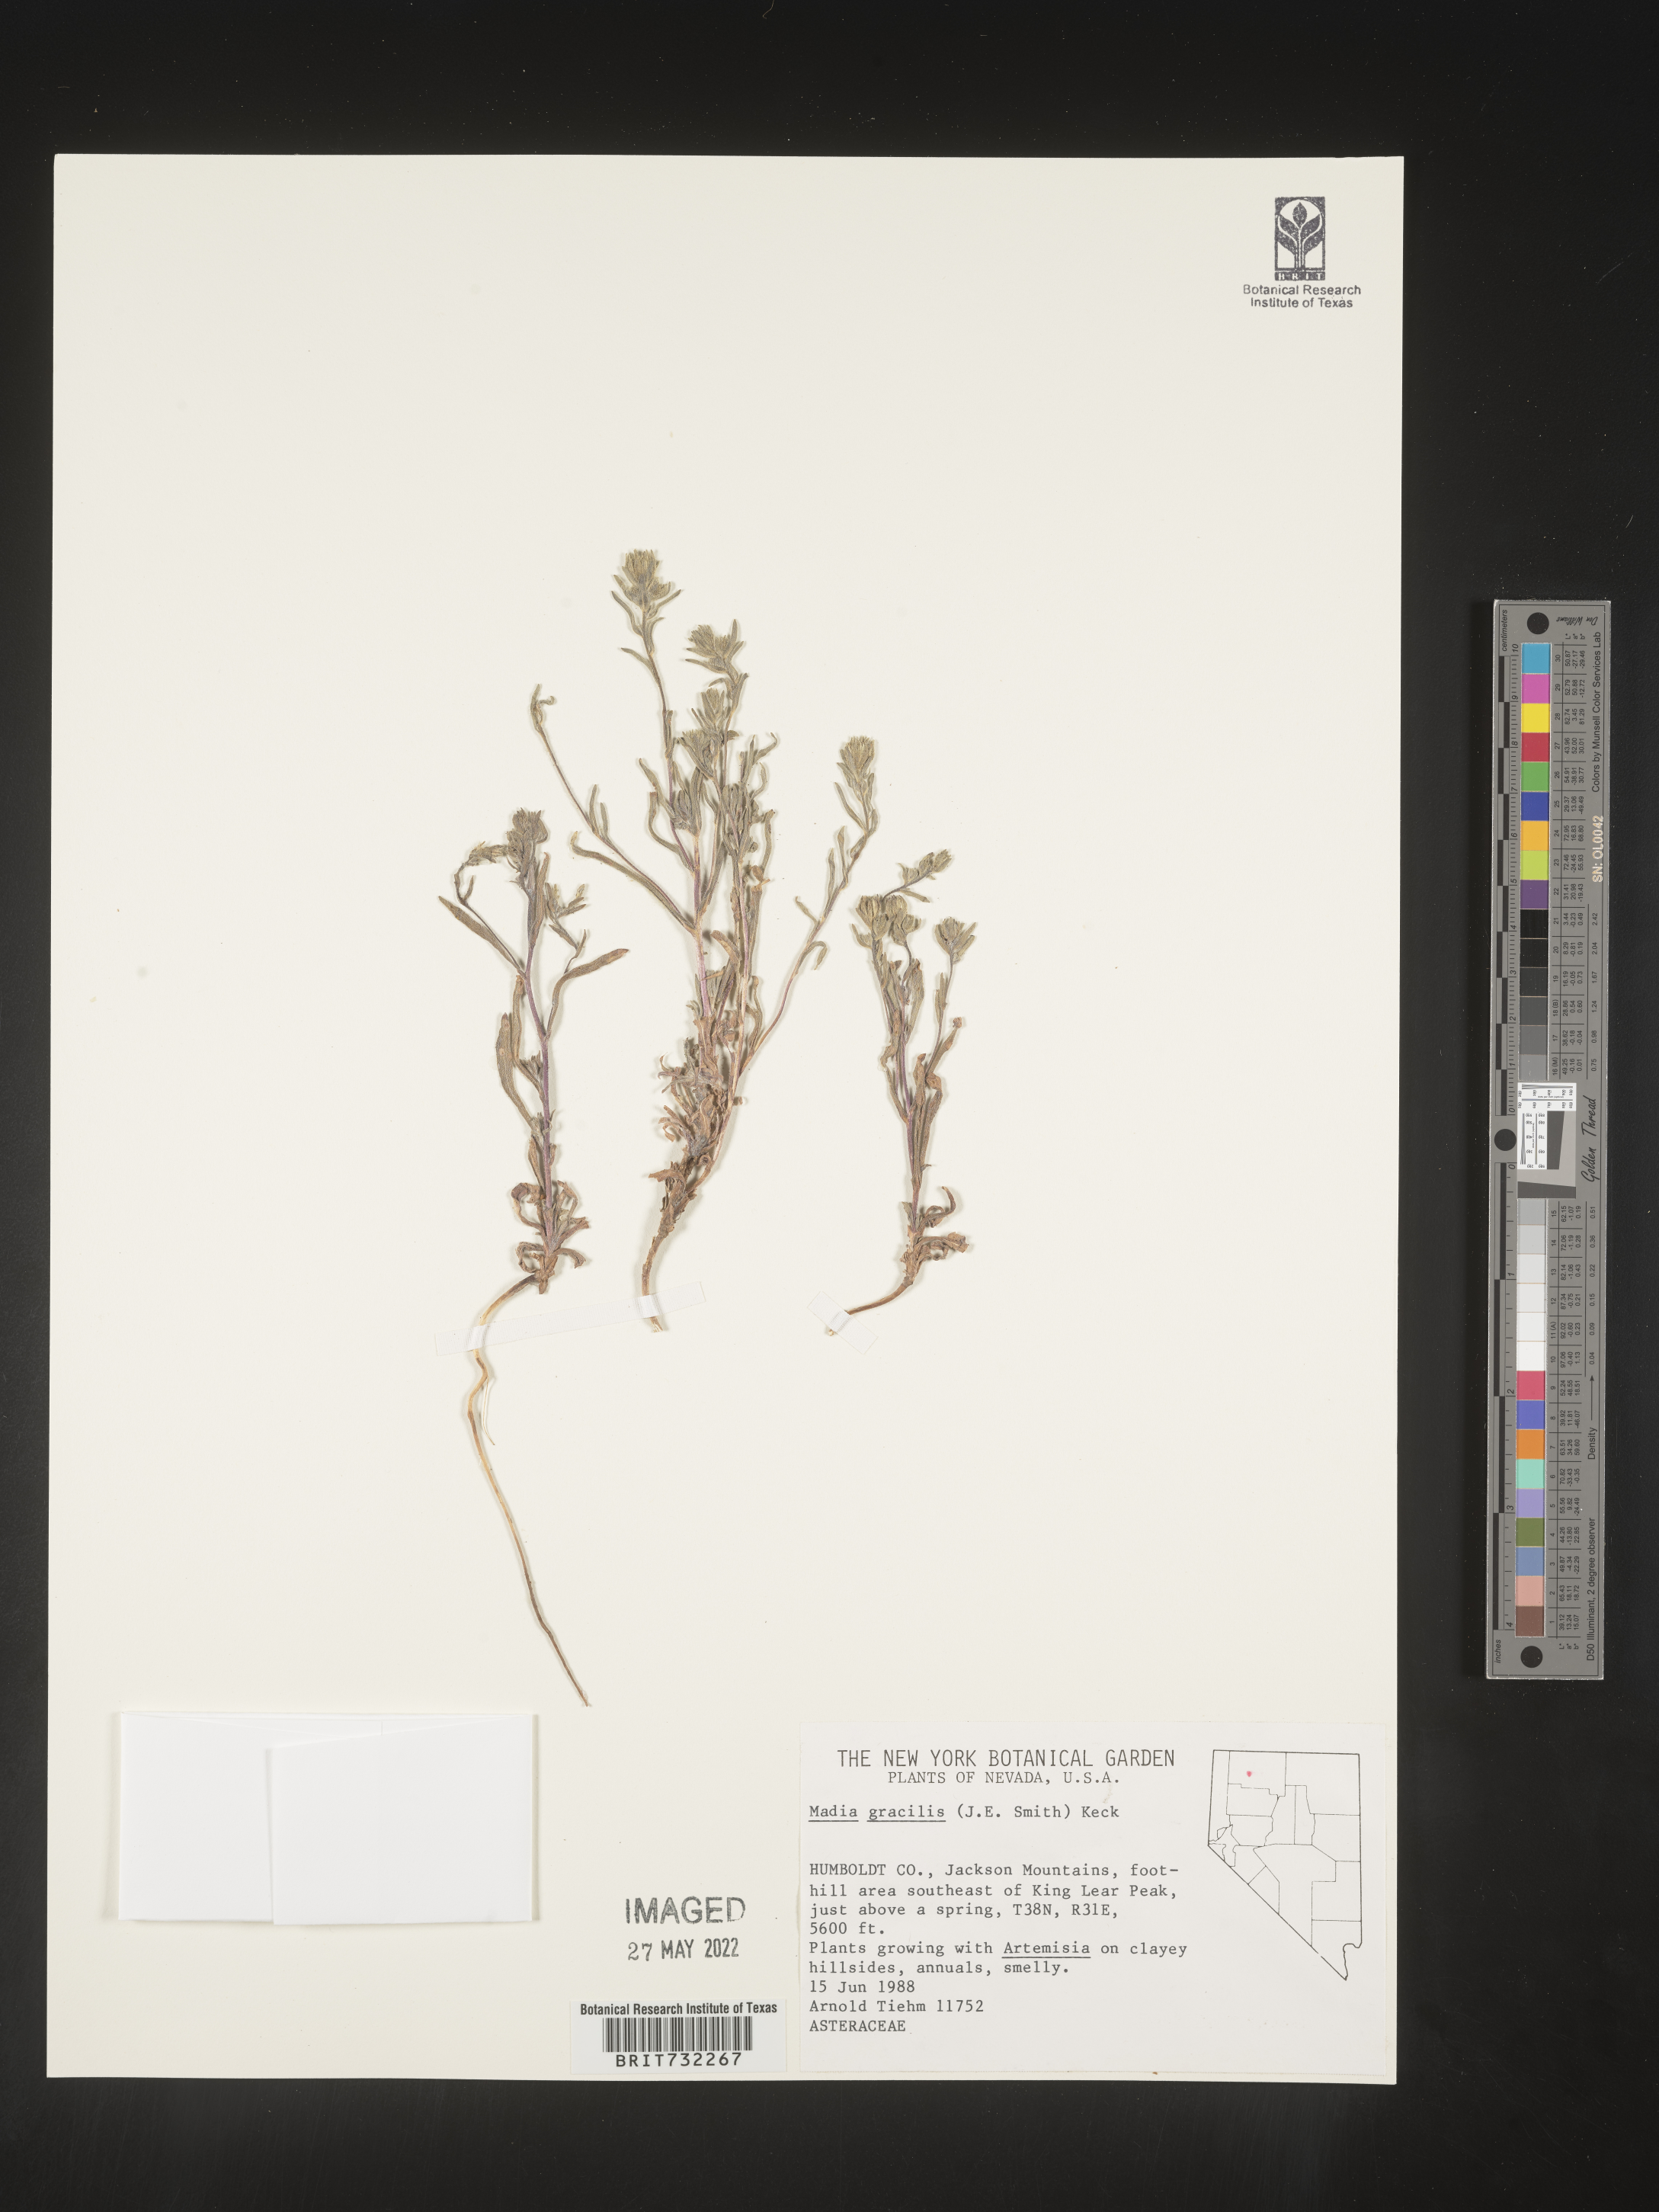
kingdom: Plantae
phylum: Tracheophyta
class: Magnoliopsida
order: Asterales
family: Asteraceae
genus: Madia
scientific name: Madia gracilis
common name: Grassy tarweed
